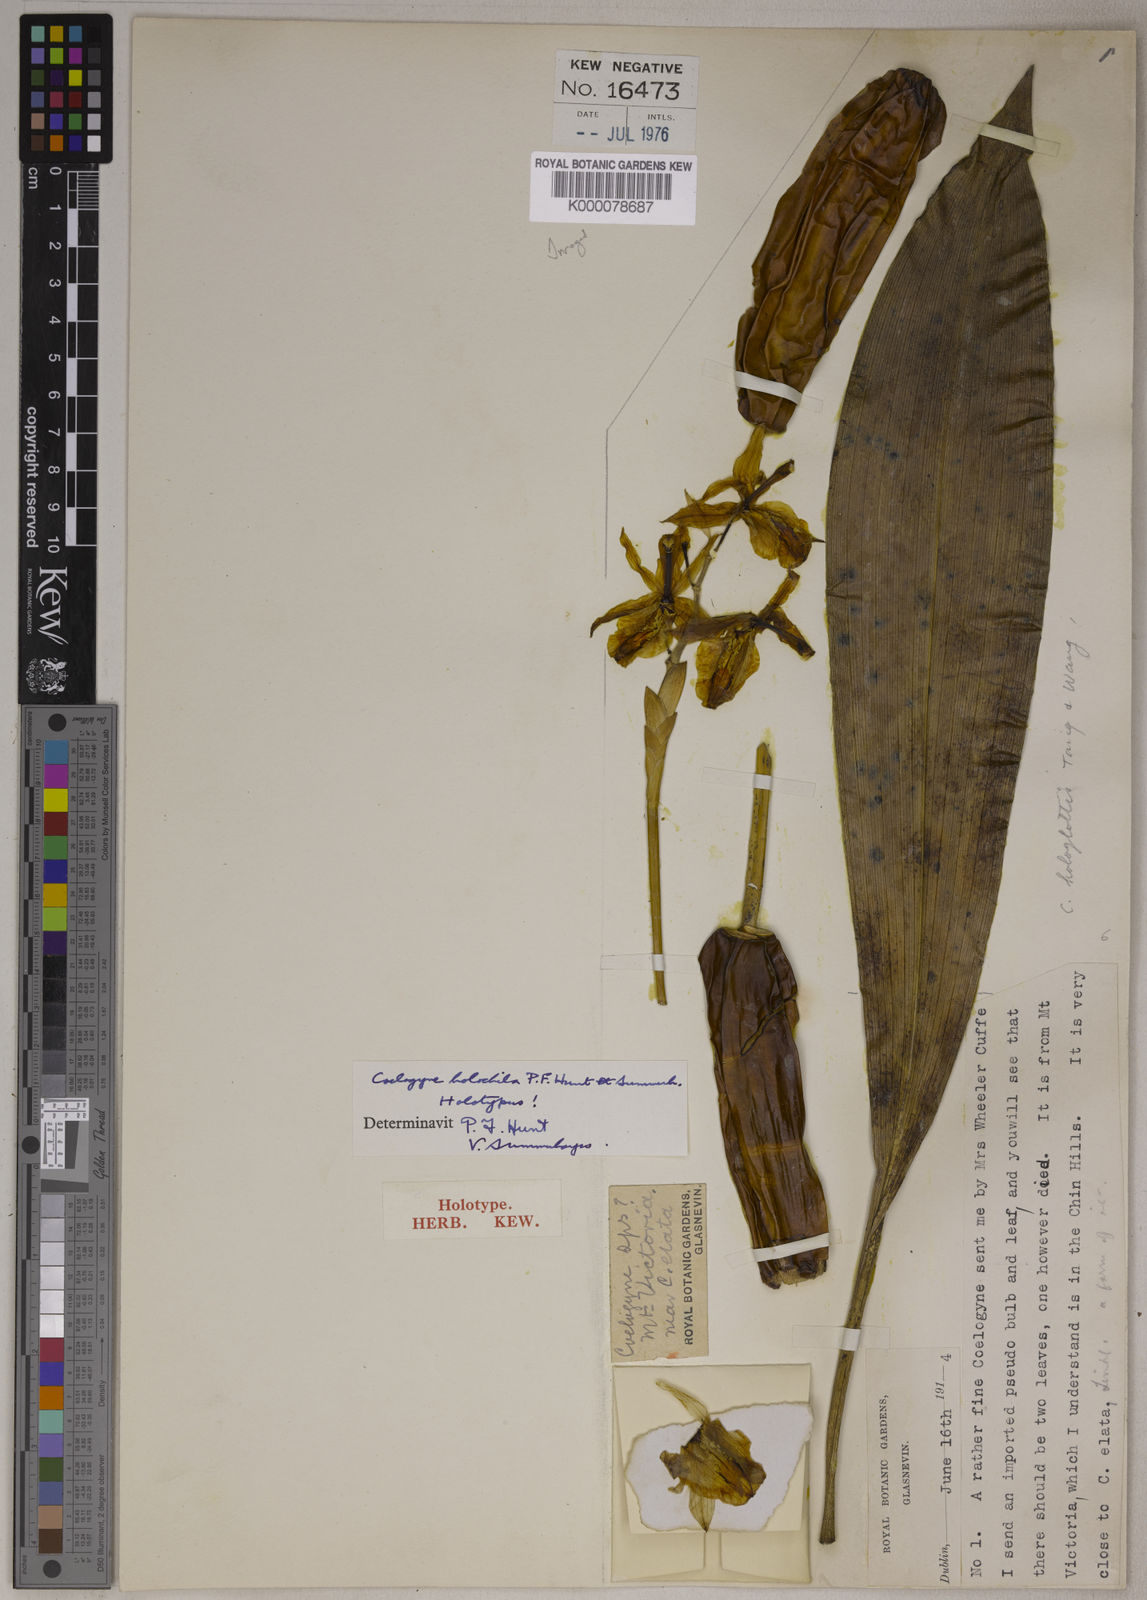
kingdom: Plantae
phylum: Tracheophyta
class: Liliopsida
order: Asparagales
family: Orchidaceae
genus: Coelogyne
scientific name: Coelogyne holochila
